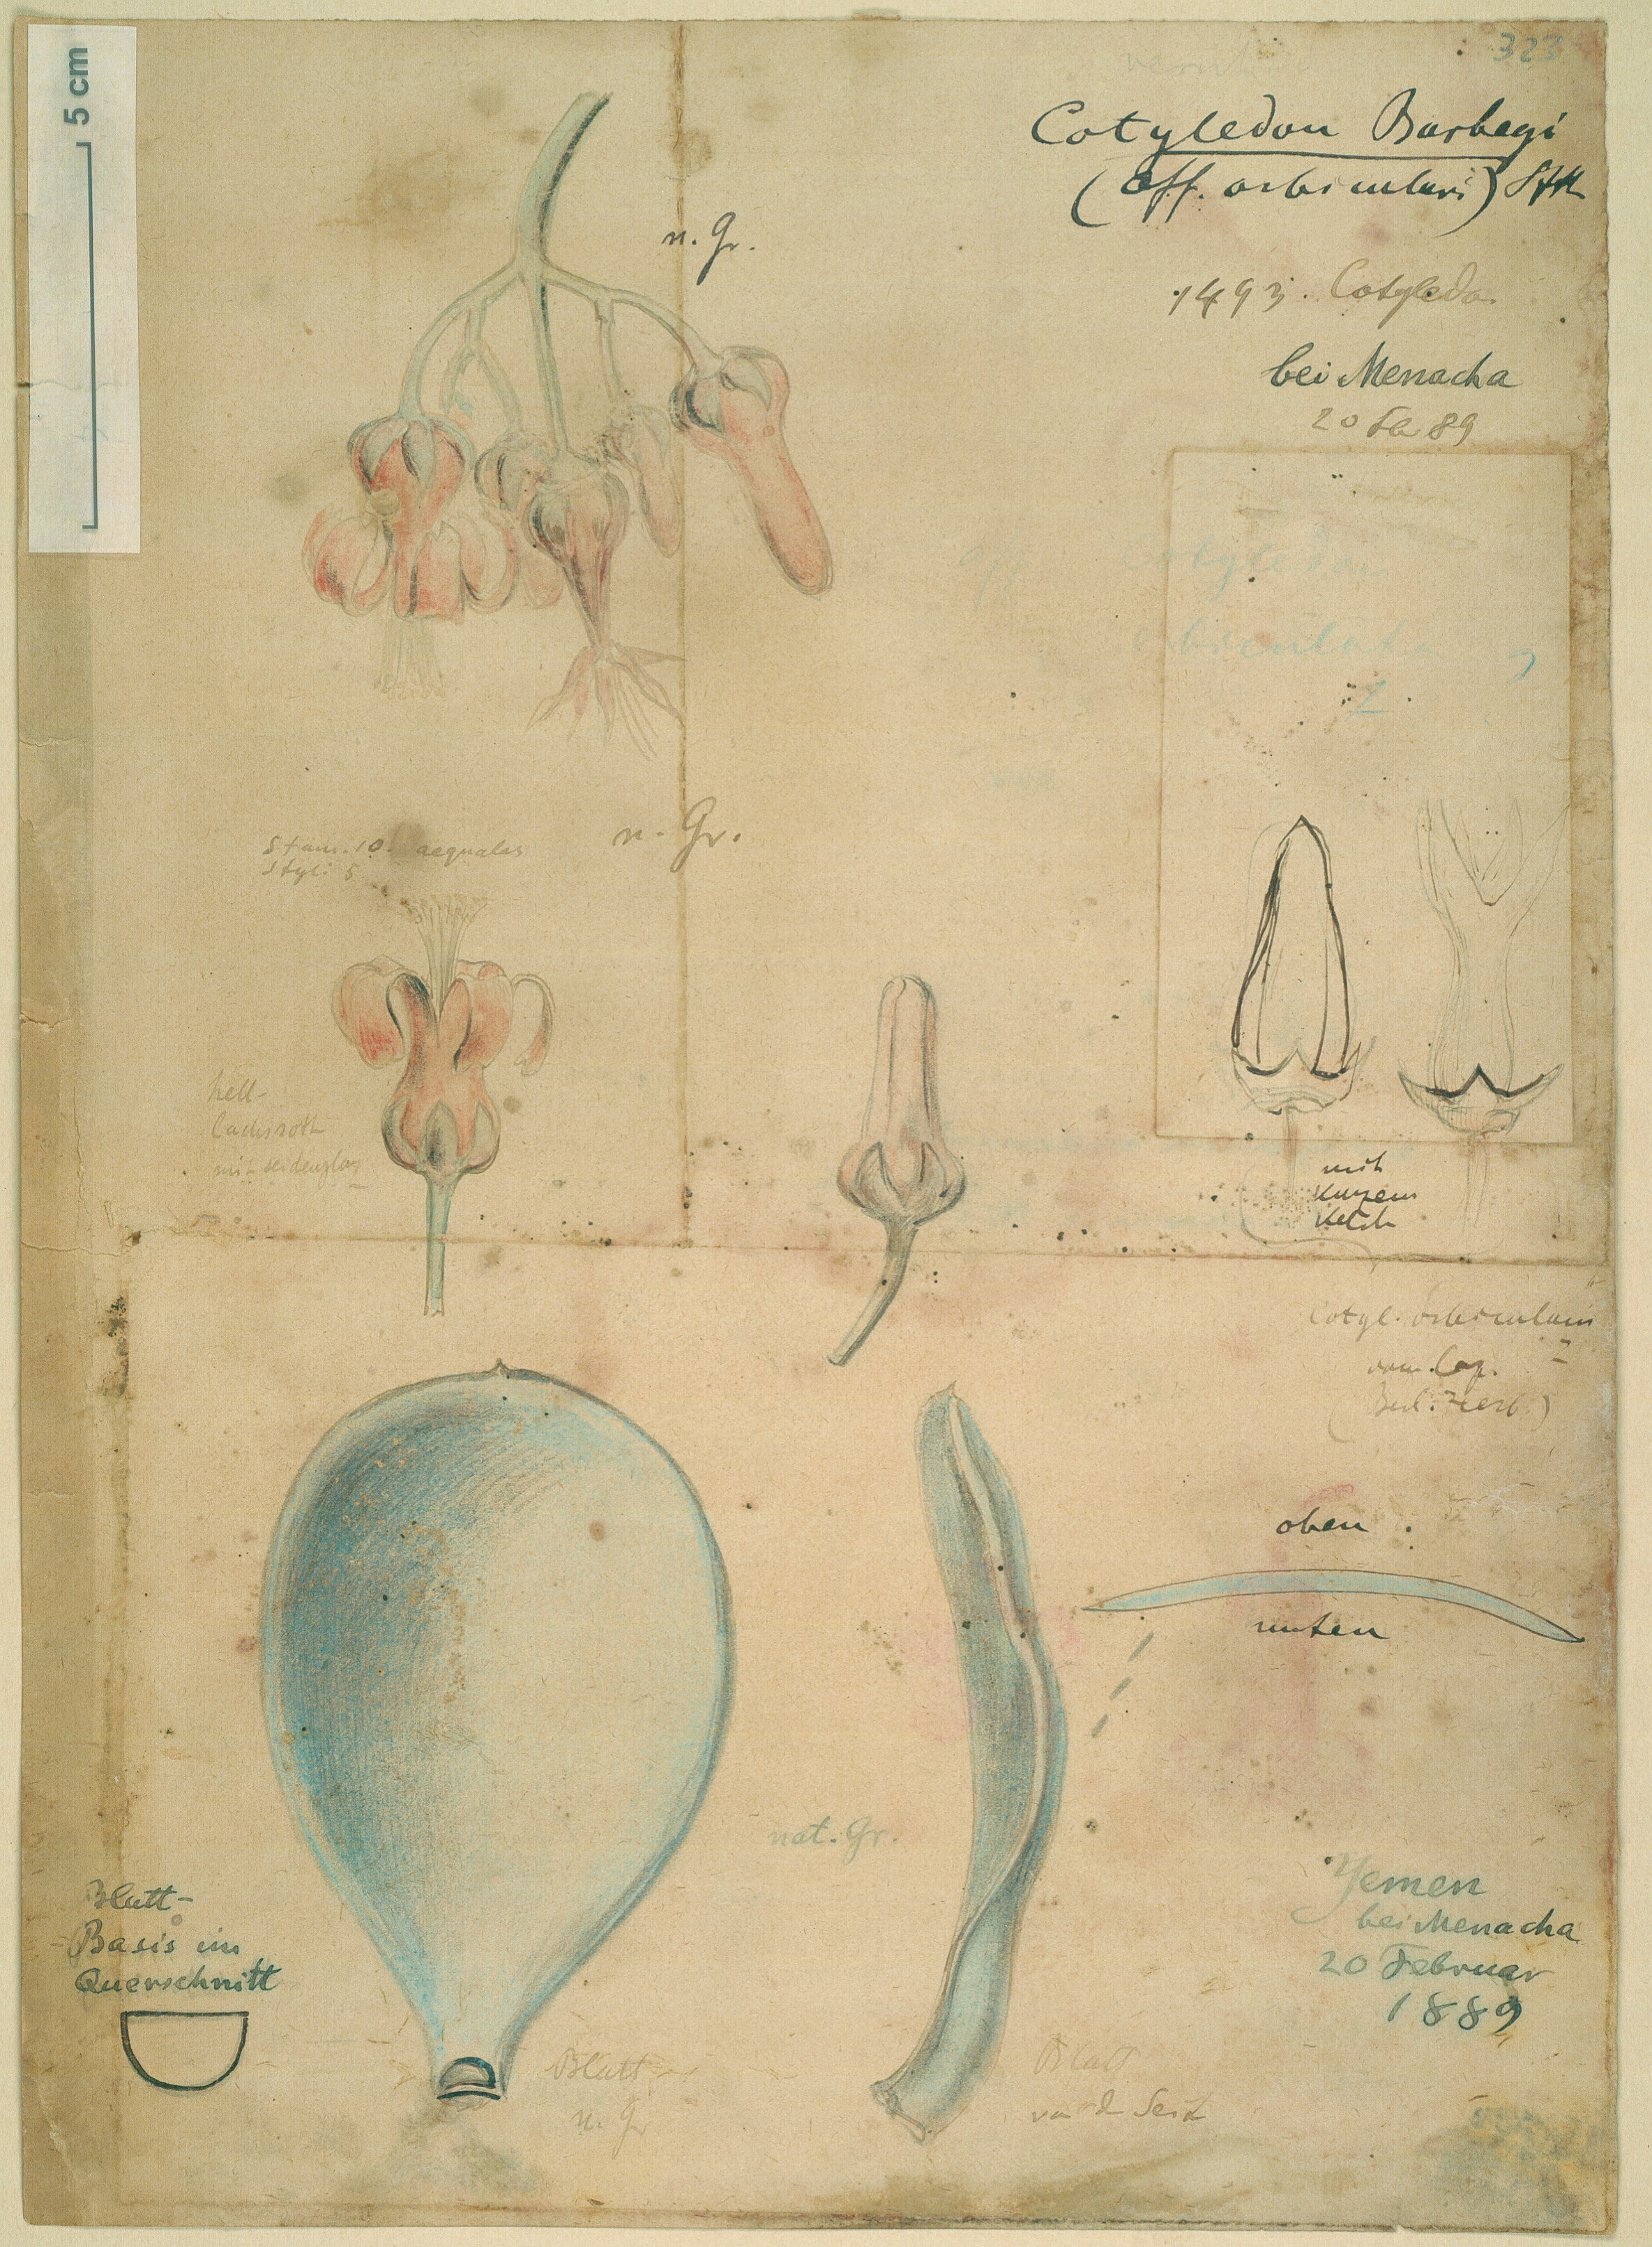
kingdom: Plantae
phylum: Tracheophyta
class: Magnoliopsida
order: Saxifragales
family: Crassulaceae
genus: Cotyledon
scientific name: Cotyledon barbeyi
